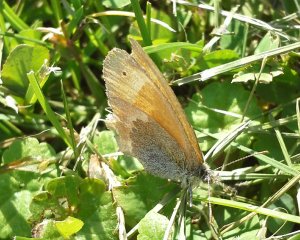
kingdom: Animalia
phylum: Arthropoda
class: Insecta
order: Lepidoptera
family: Nymphalidae
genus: Coenonympha
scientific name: Coenonympha tullia
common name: Large Heath
